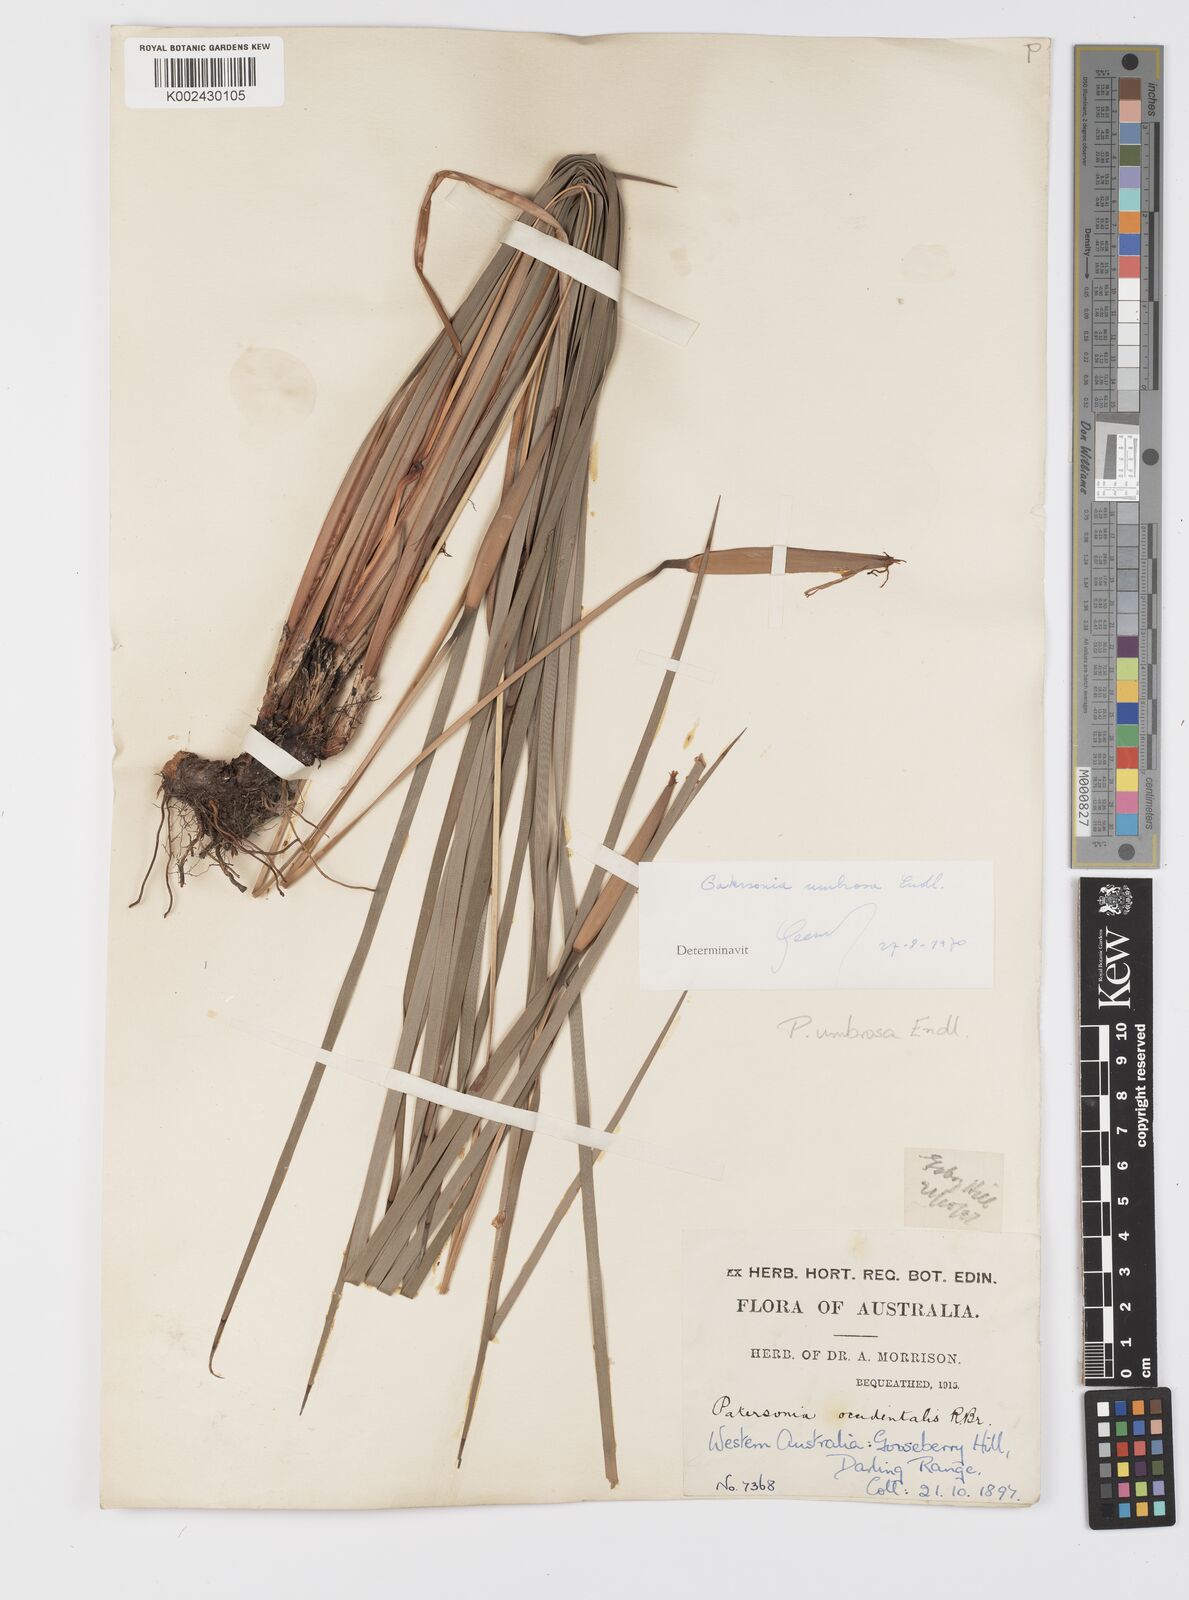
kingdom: Plantae
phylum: Tracheophyta
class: Liliopsida
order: Asparagales
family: Iridaceae
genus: Patersonia
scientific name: Patersonia umbrosa
